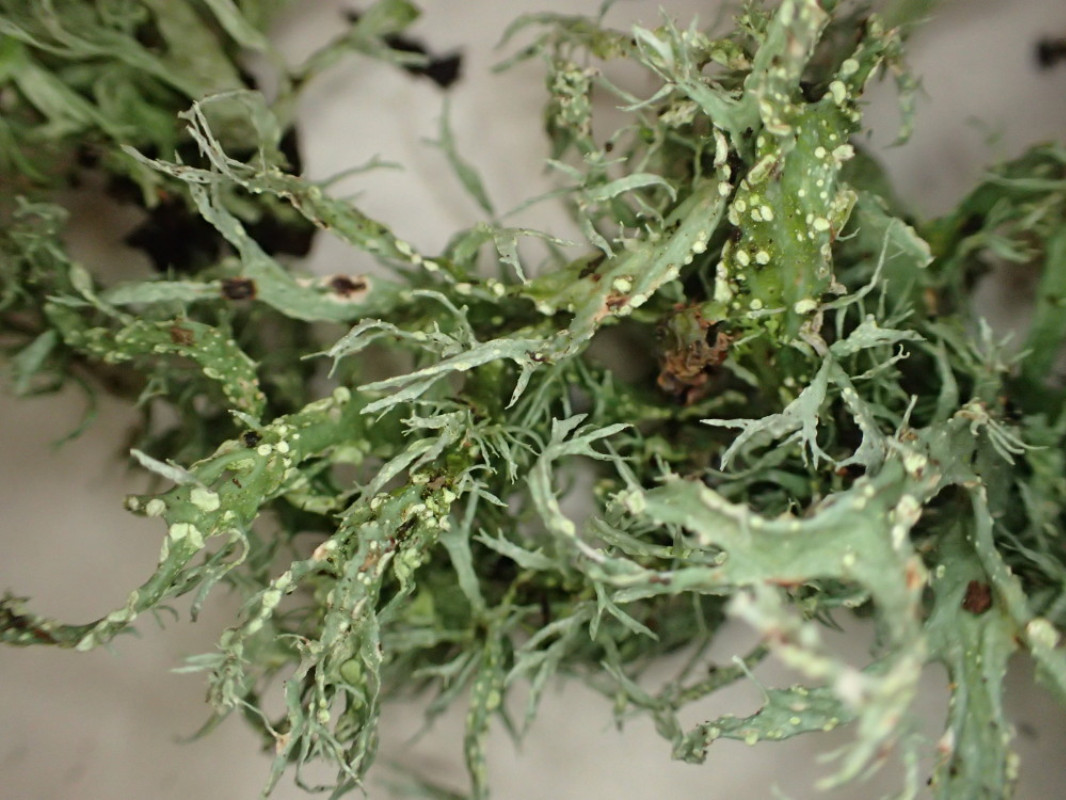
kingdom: Fungi
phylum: Ascomycota
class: Lecanoromycetes
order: Lecanorales
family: Ramalinaceae
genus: Ramalina
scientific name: Ramalina farinacea
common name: melet grenlav
